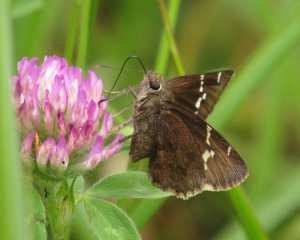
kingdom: Animalia
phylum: Arthropoda
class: Insecta
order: Lepidoptera
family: Hesperiidae
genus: Autochton
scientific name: Autochton
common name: Southern Cloudywing
